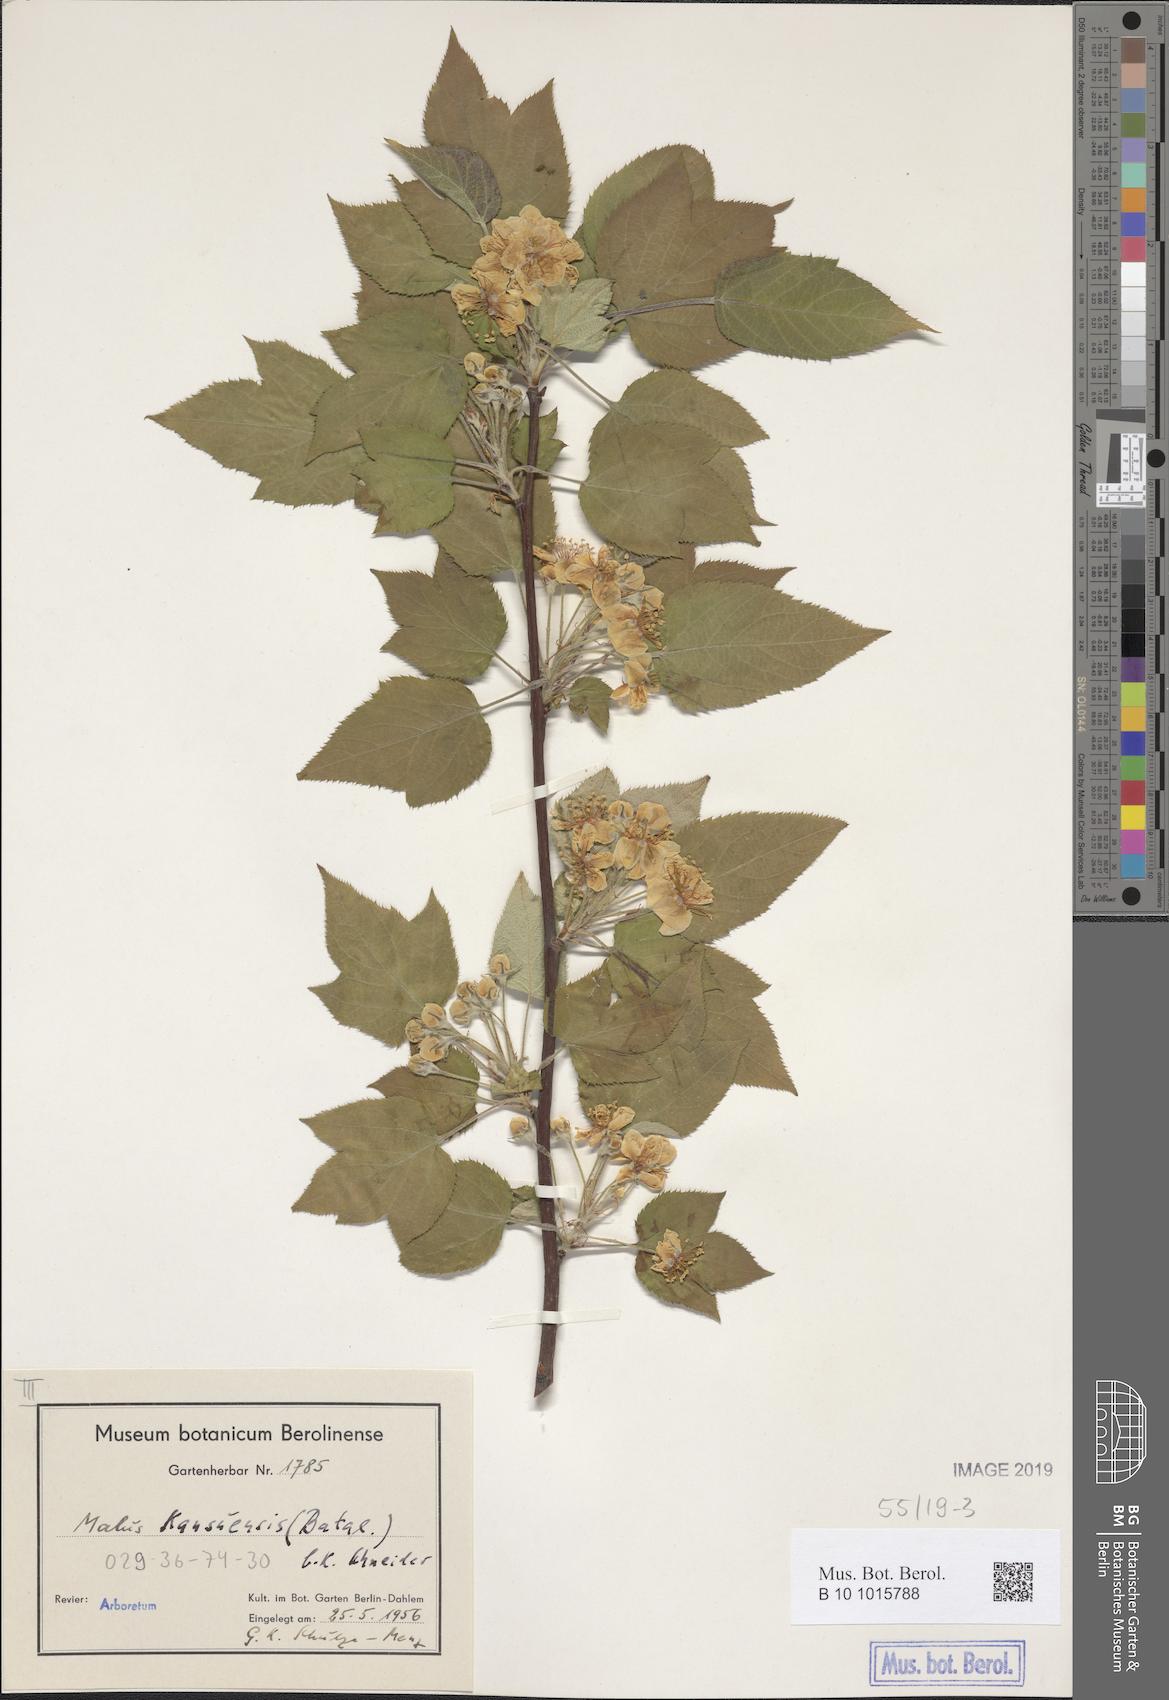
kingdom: Plantae
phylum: Tracheophyta
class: Magnoliopsida
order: Rosales
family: Rosaceae
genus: Malus
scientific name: Malus kansuensis
